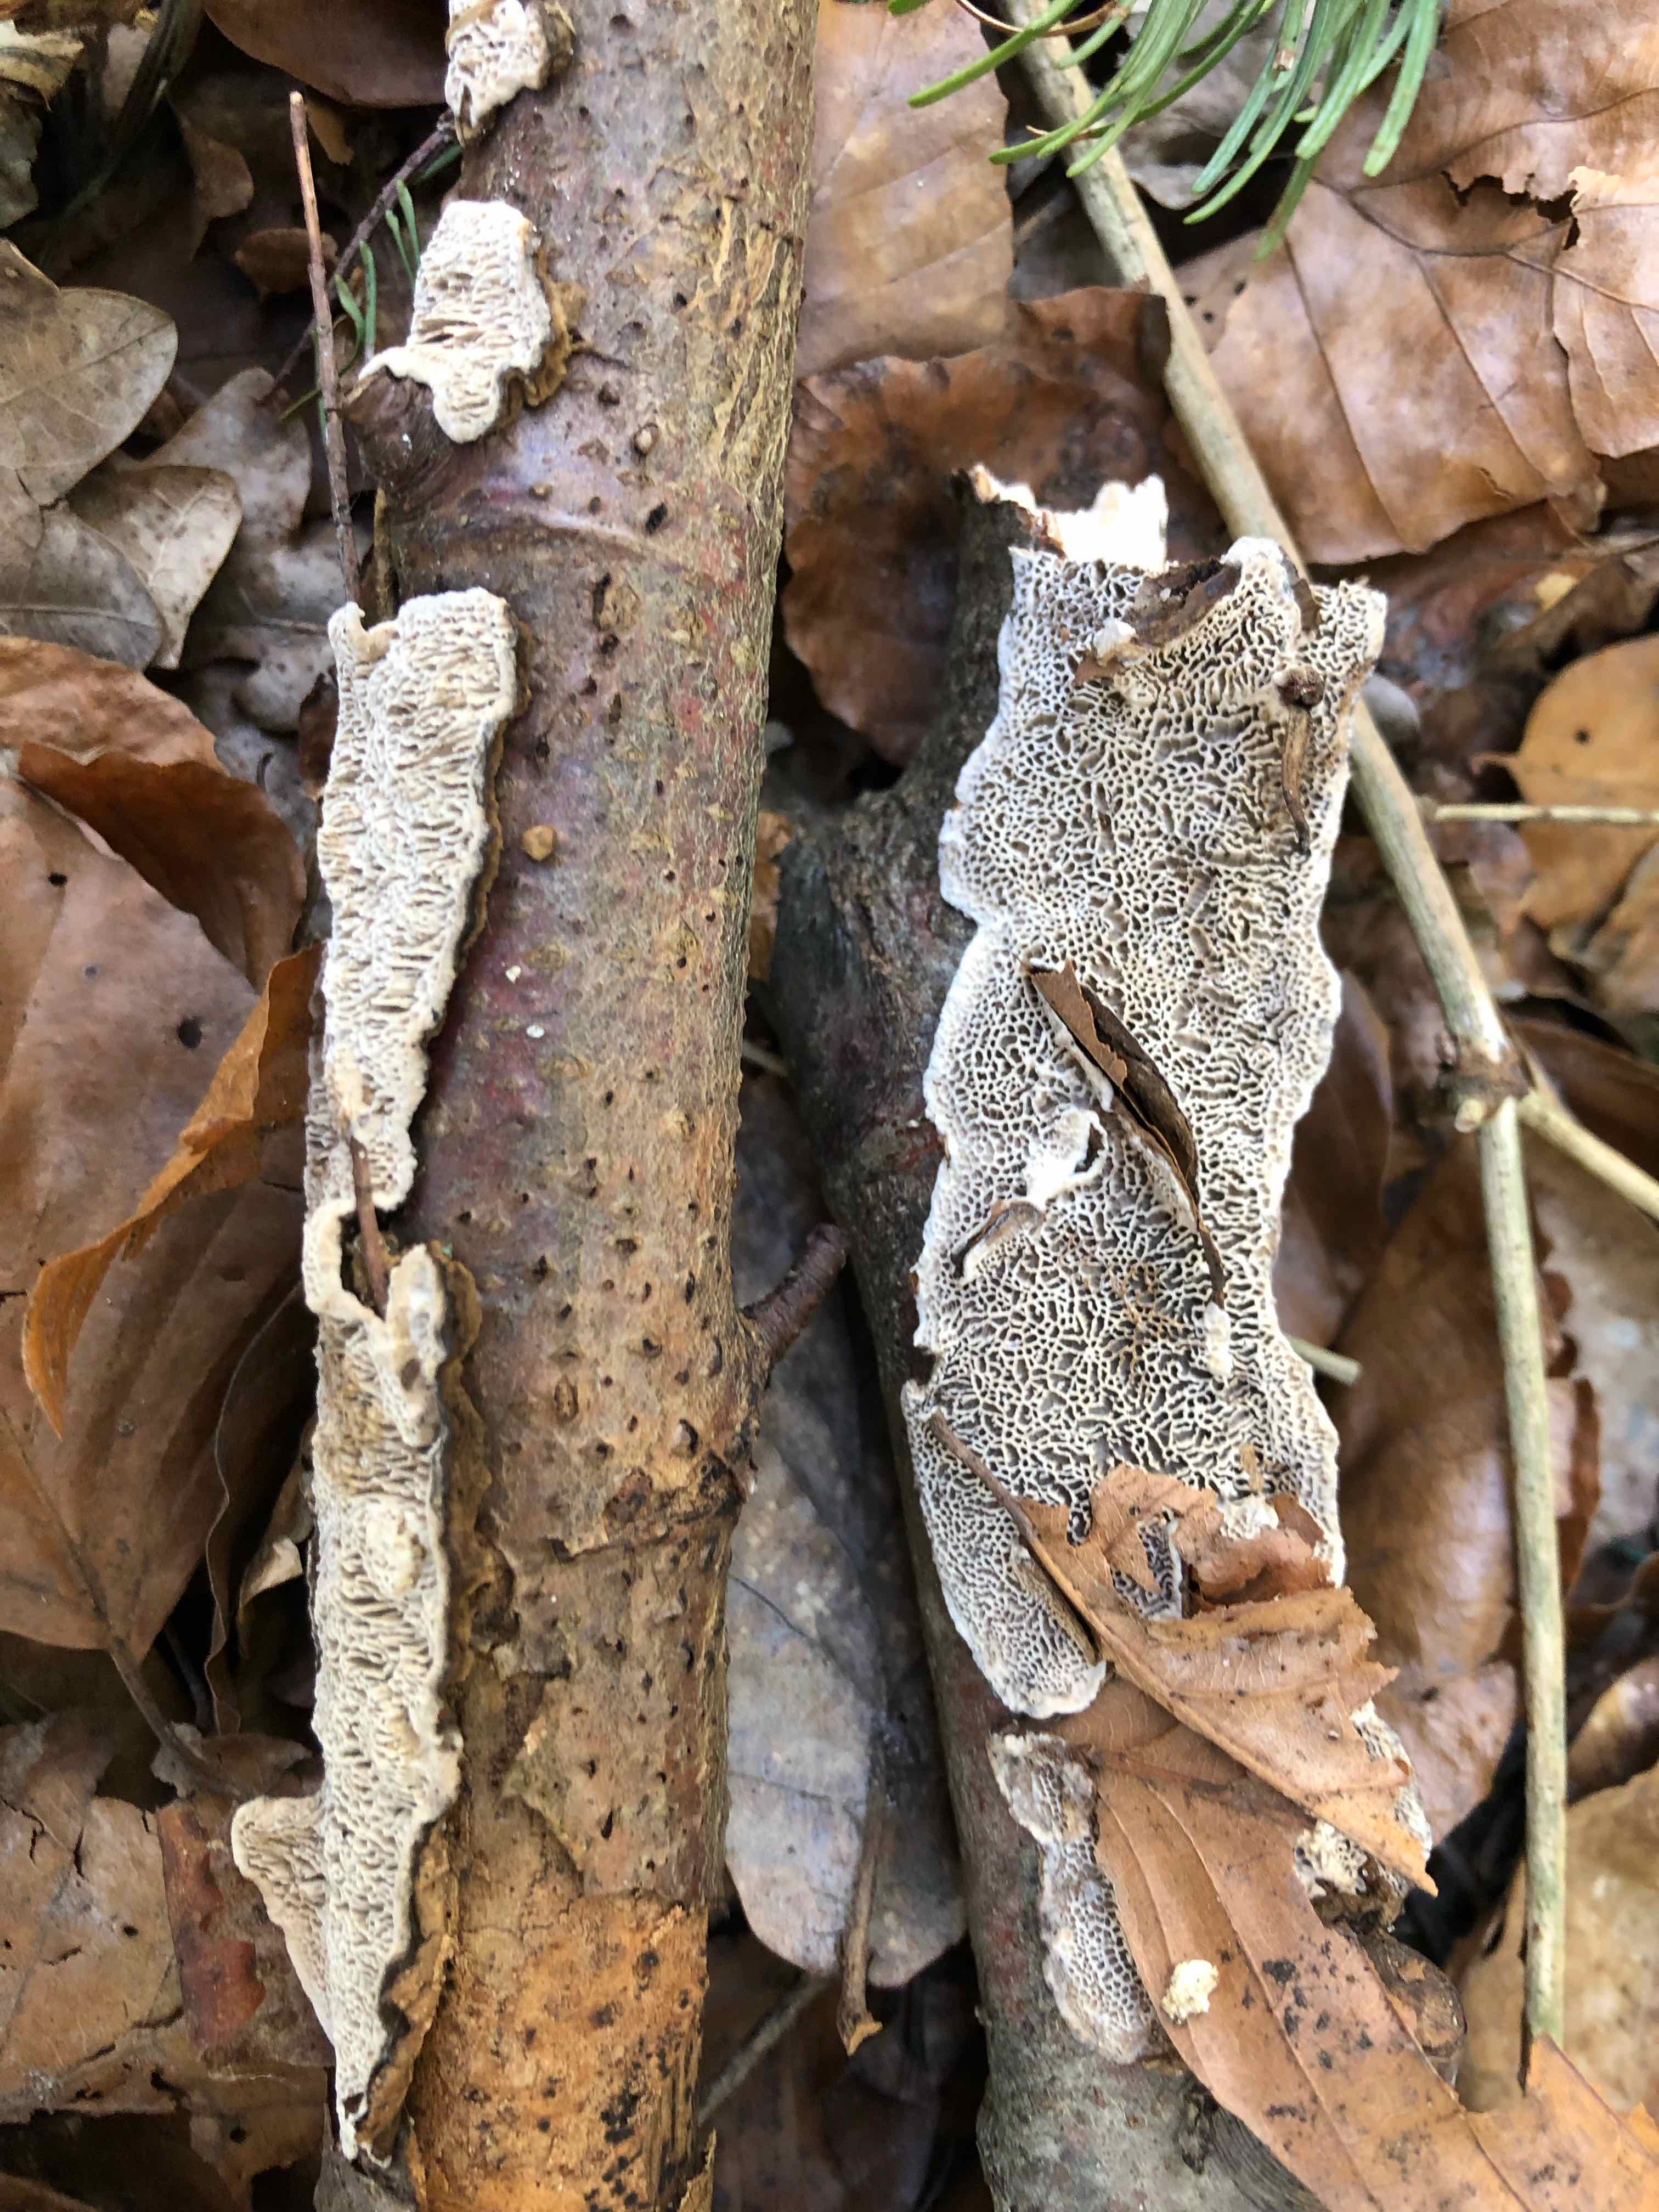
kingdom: Fungi
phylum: Basidiomycota
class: Agaricomycetes
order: Polyporales
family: Polyporaceae
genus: Podofomes
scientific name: Podofomes mollis
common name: blød begporesvamp
